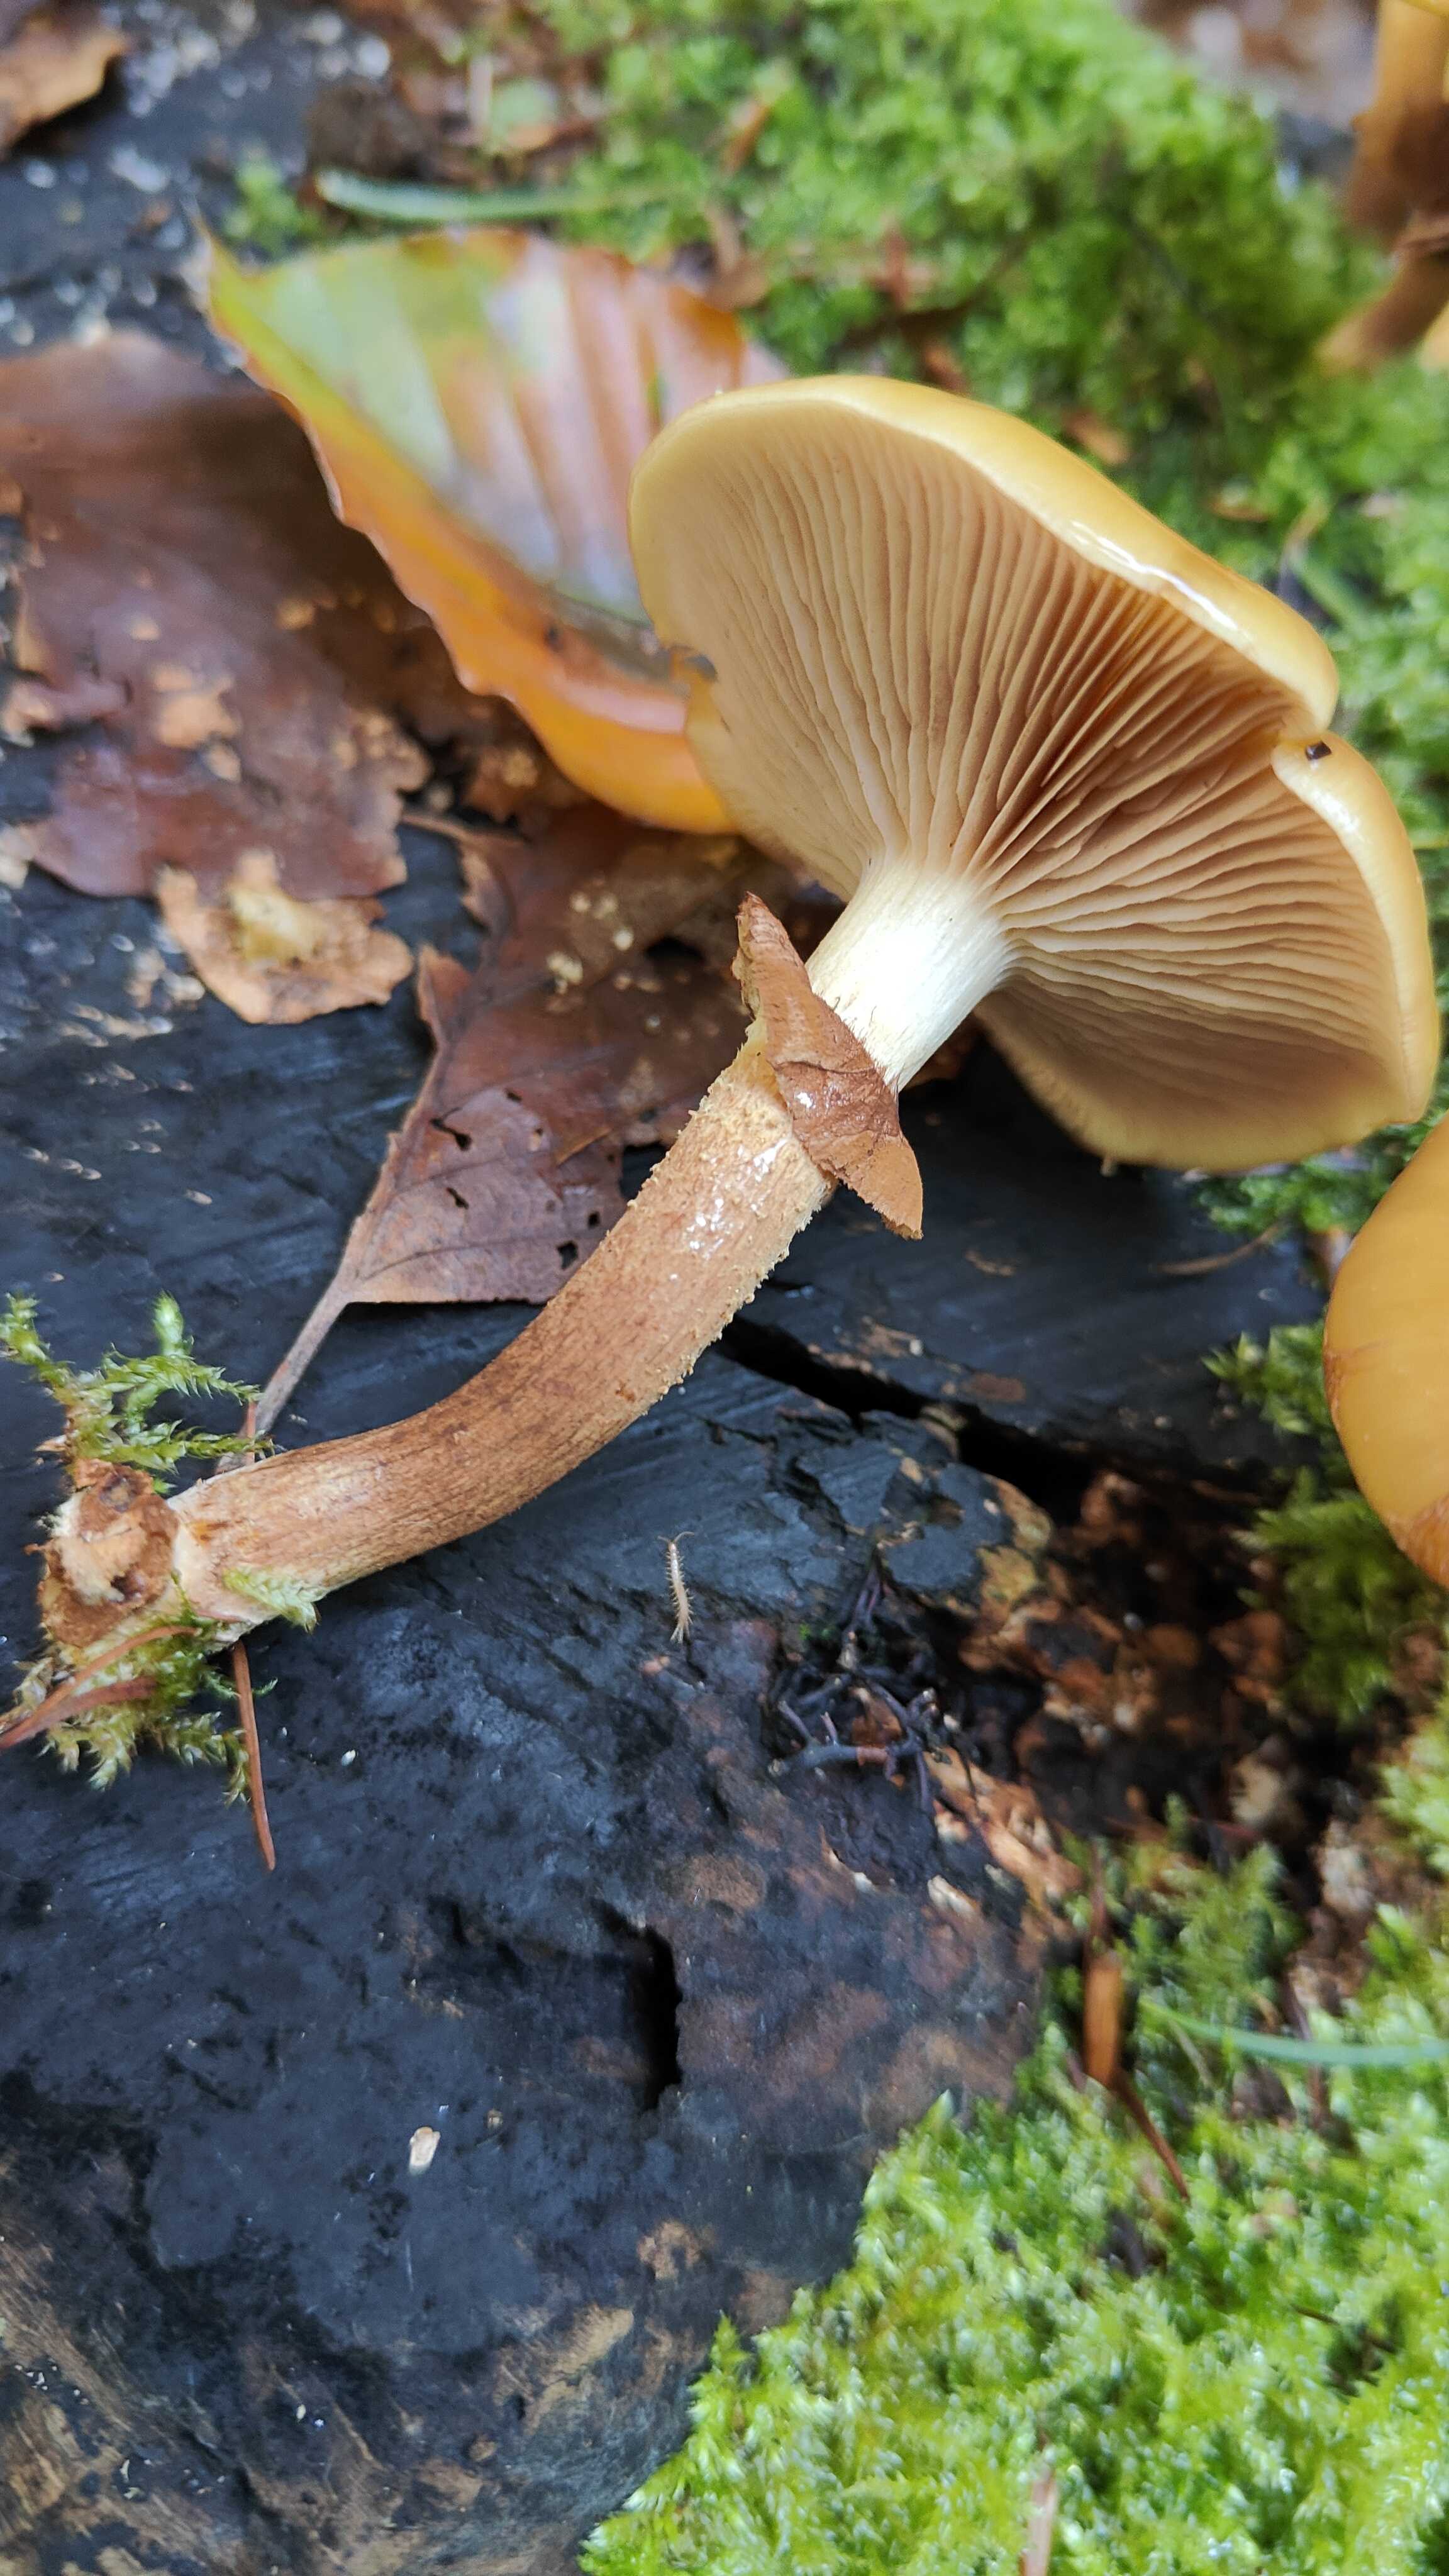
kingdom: Fungi
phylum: Basidiomycota
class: Agaricomycetes
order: Agaricales
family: Strophariaceae
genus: Kuehneromyces
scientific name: Kuehneromyces mutabilis
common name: foranderlig skælhat
